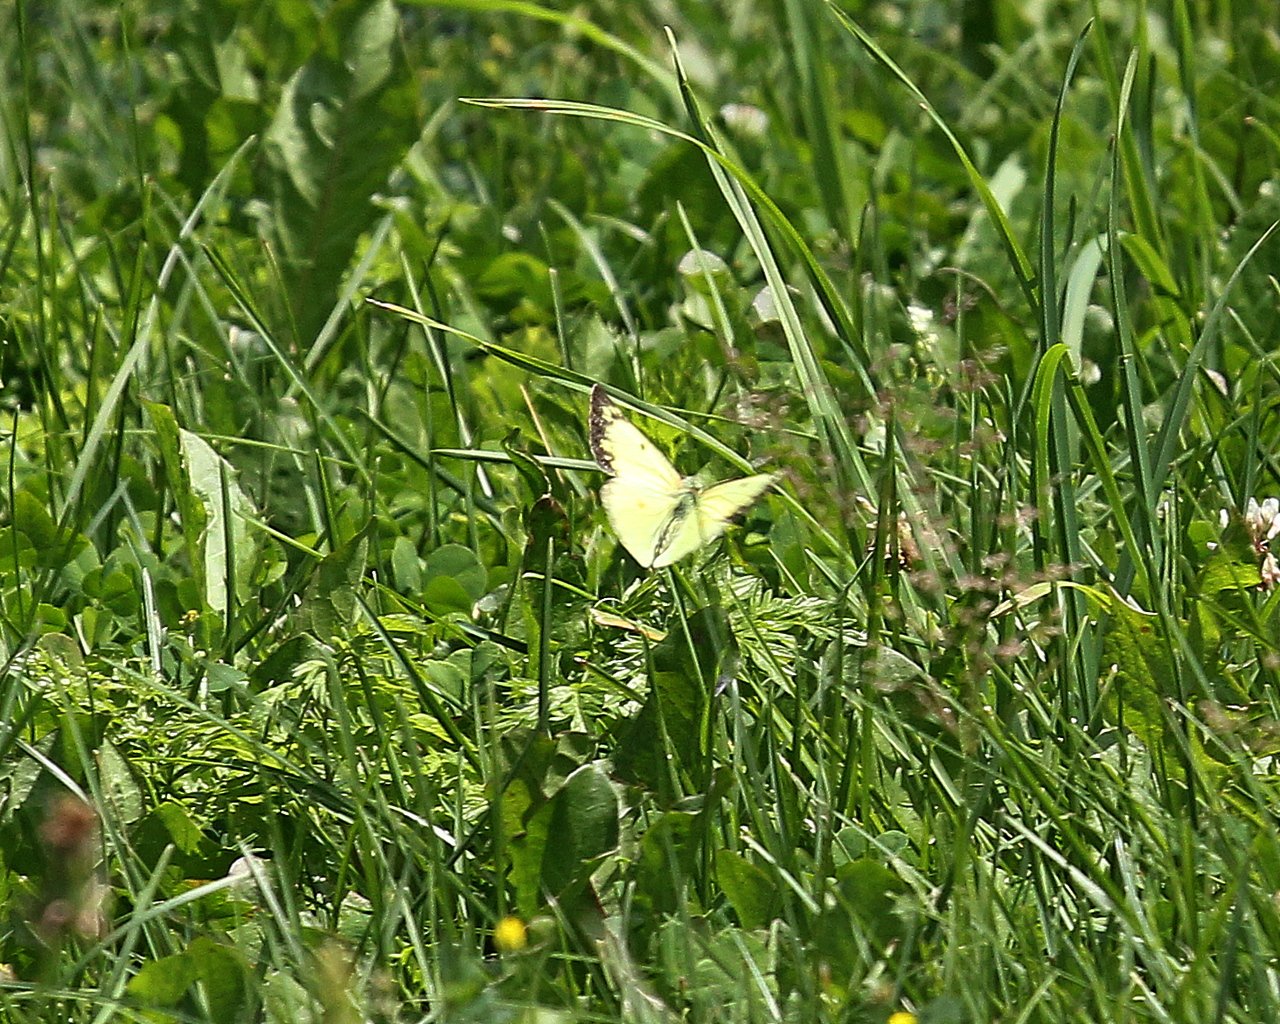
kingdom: Animalia
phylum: Arthropoda
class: Insecta
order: Lepidoptera
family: Pieridae
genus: Colias
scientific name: Colias philodice
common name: Clouded Sulphur
